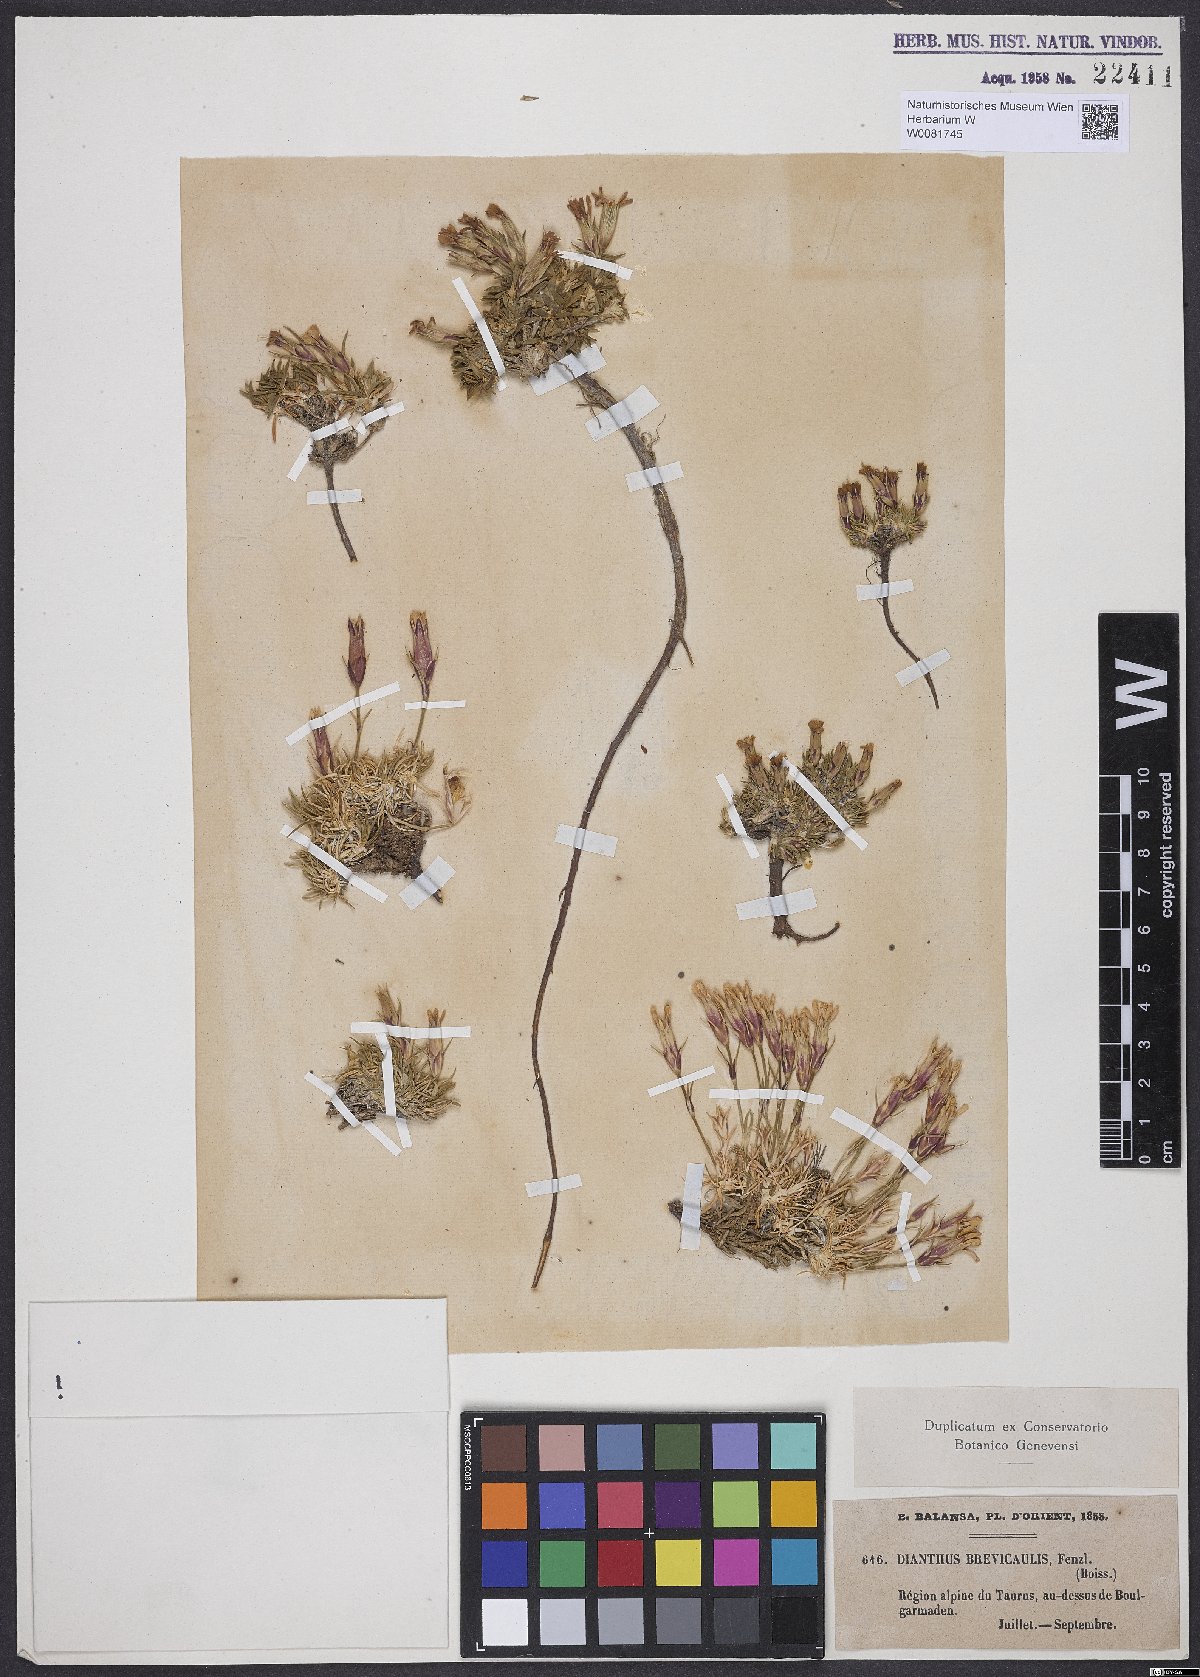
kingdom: Plantae
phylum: Tracheophyta
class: Magnoliopsida
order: Caryophyllales
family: Caryophyllaceae
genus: Dianthus
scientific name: Dianthus brevicaulis
